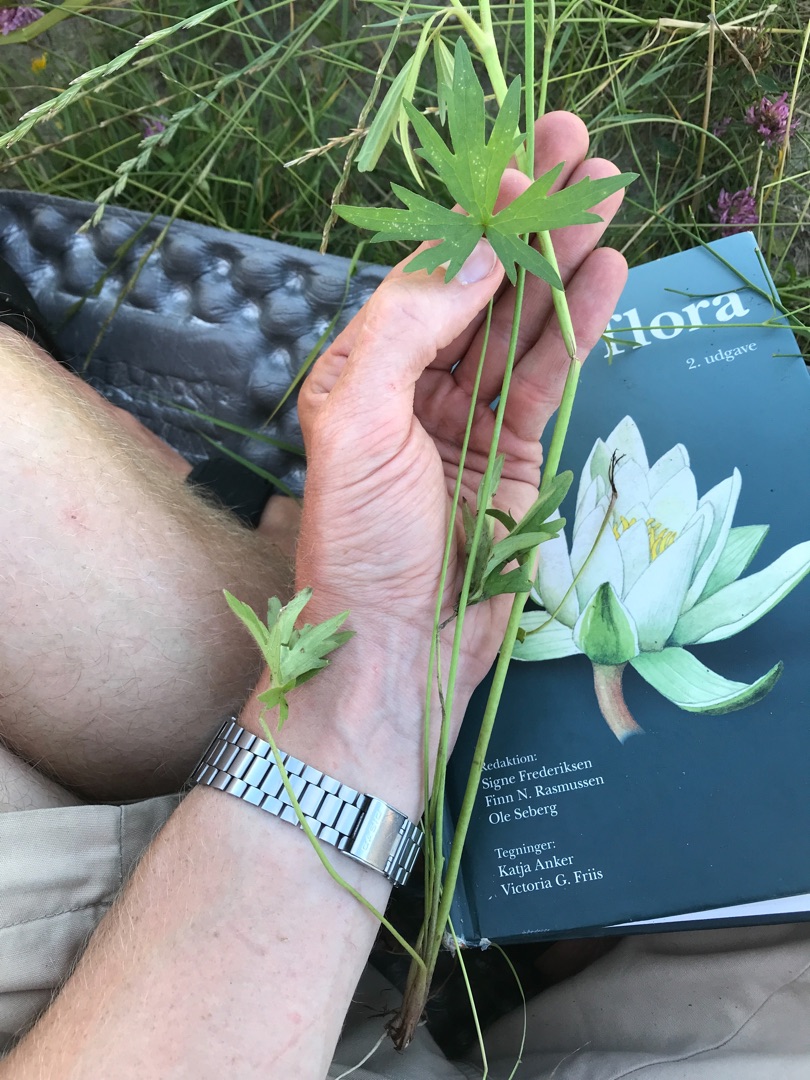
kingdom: Plantae
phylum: Tracheophyta
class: Magnoliopsida
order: Ranunculales
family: Ranunculaceae
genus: Ranunculus
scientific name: Ranunculus acris
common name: Bidende ranunkel
